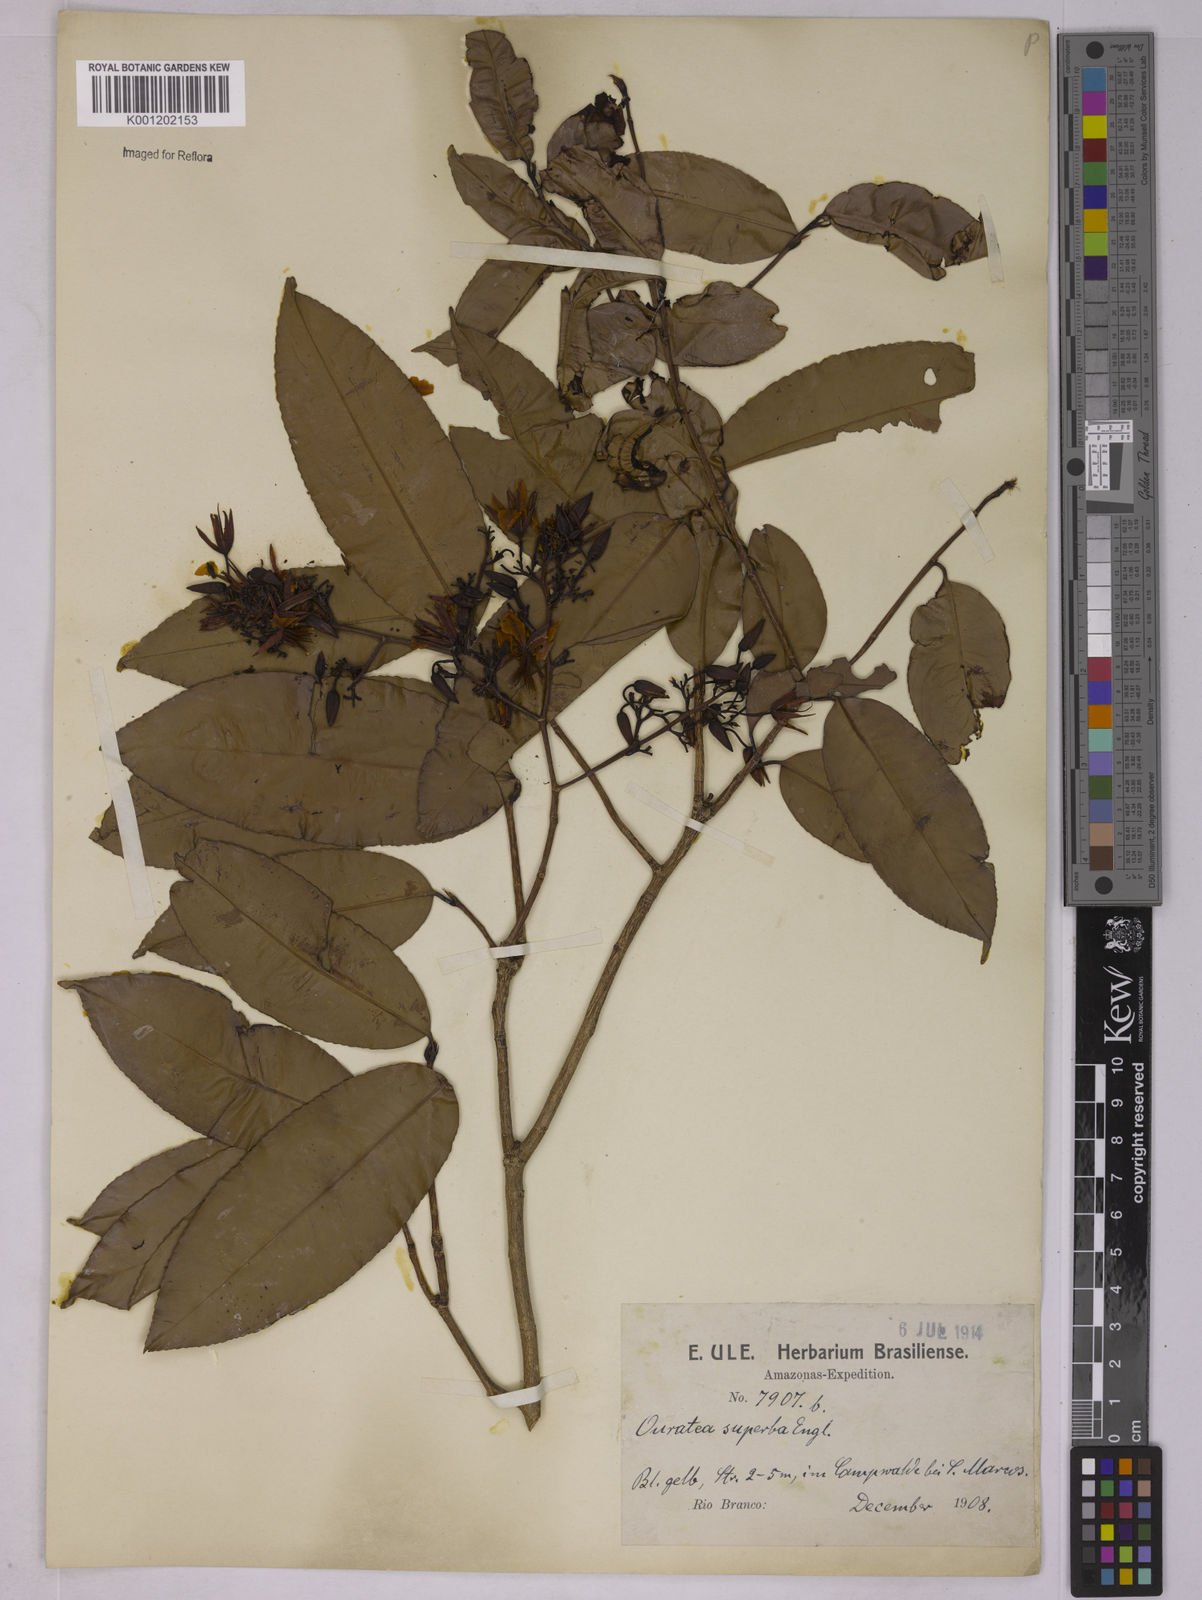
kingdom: Plantae
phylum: Tracheophyta
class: Magnoliopsida
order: Malpighiales
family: Ochnaceae
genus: Ouratea
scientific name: Ouratea superba
